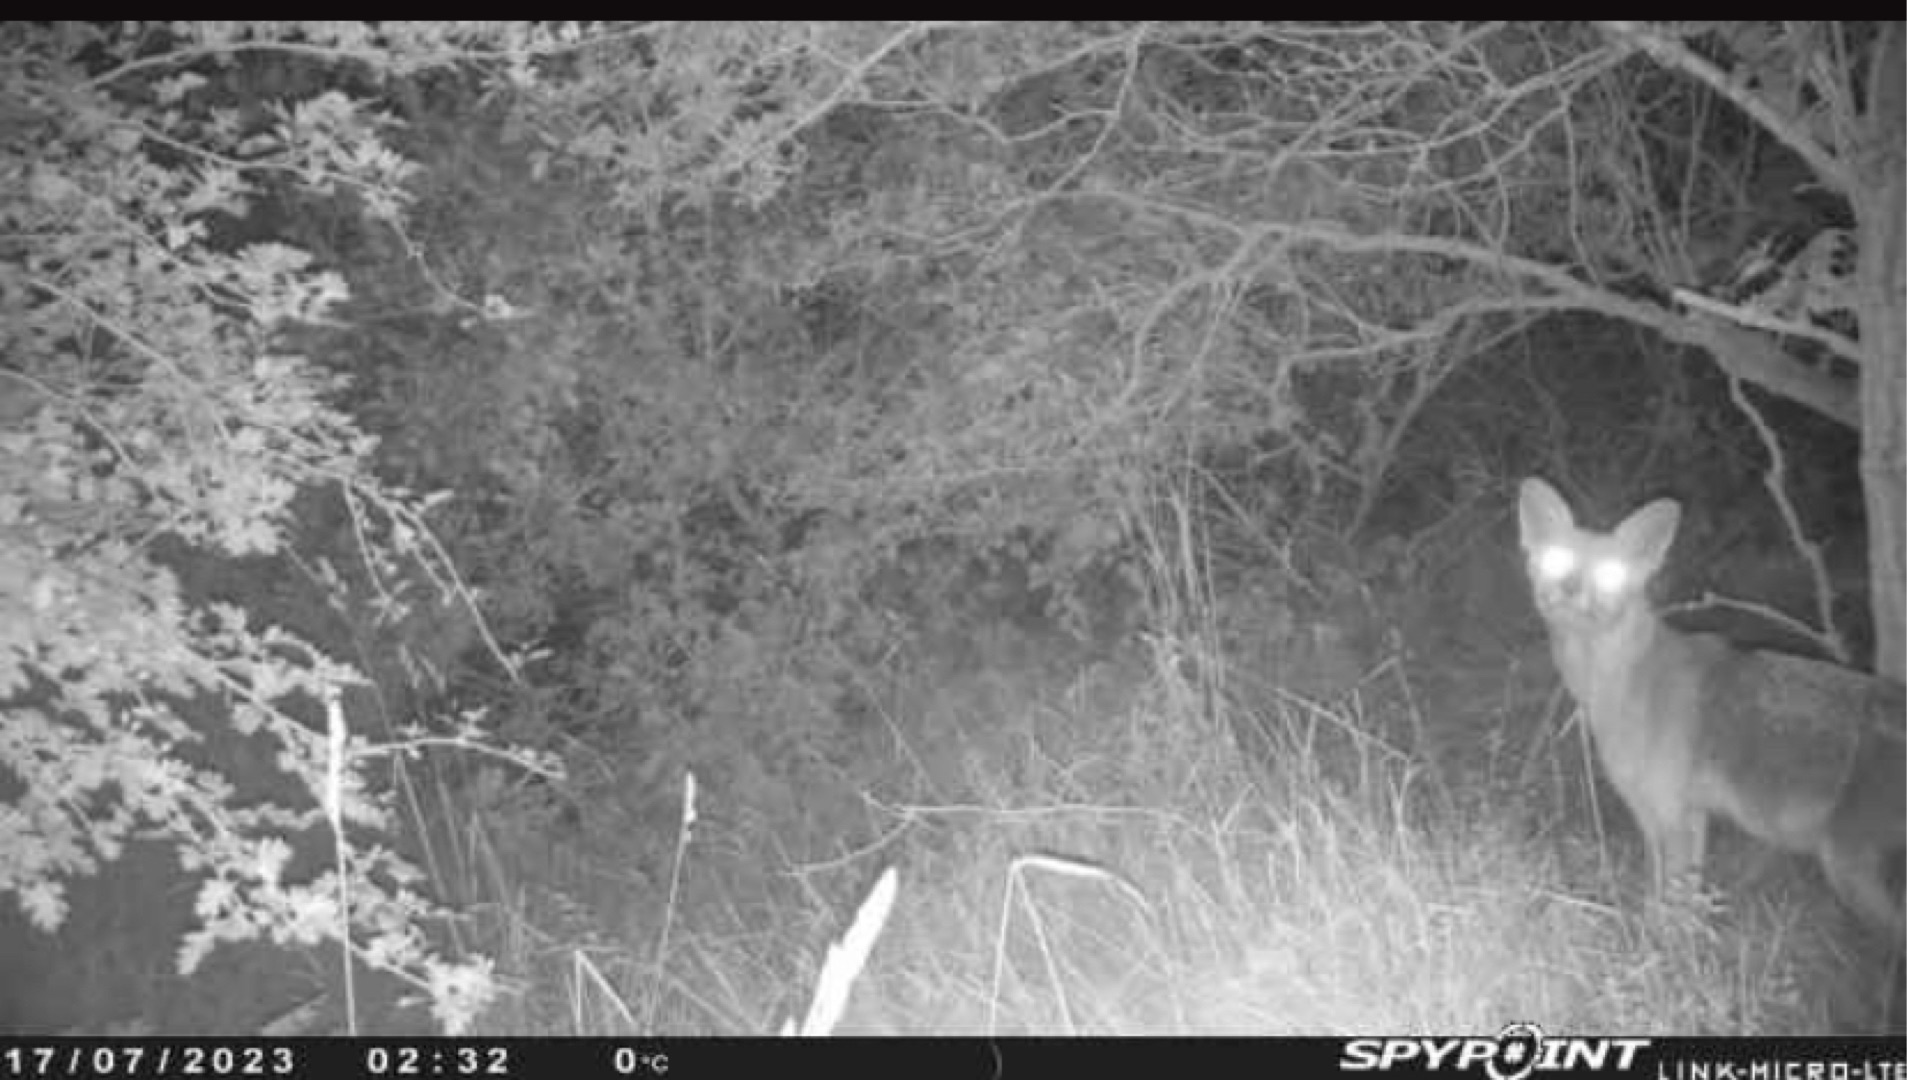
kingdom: Animalia
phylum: Chordata
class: Mammalia
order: Carnivora
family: Canidae
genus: Vulpes
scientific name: Vulpes vulpes
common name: Ræv
